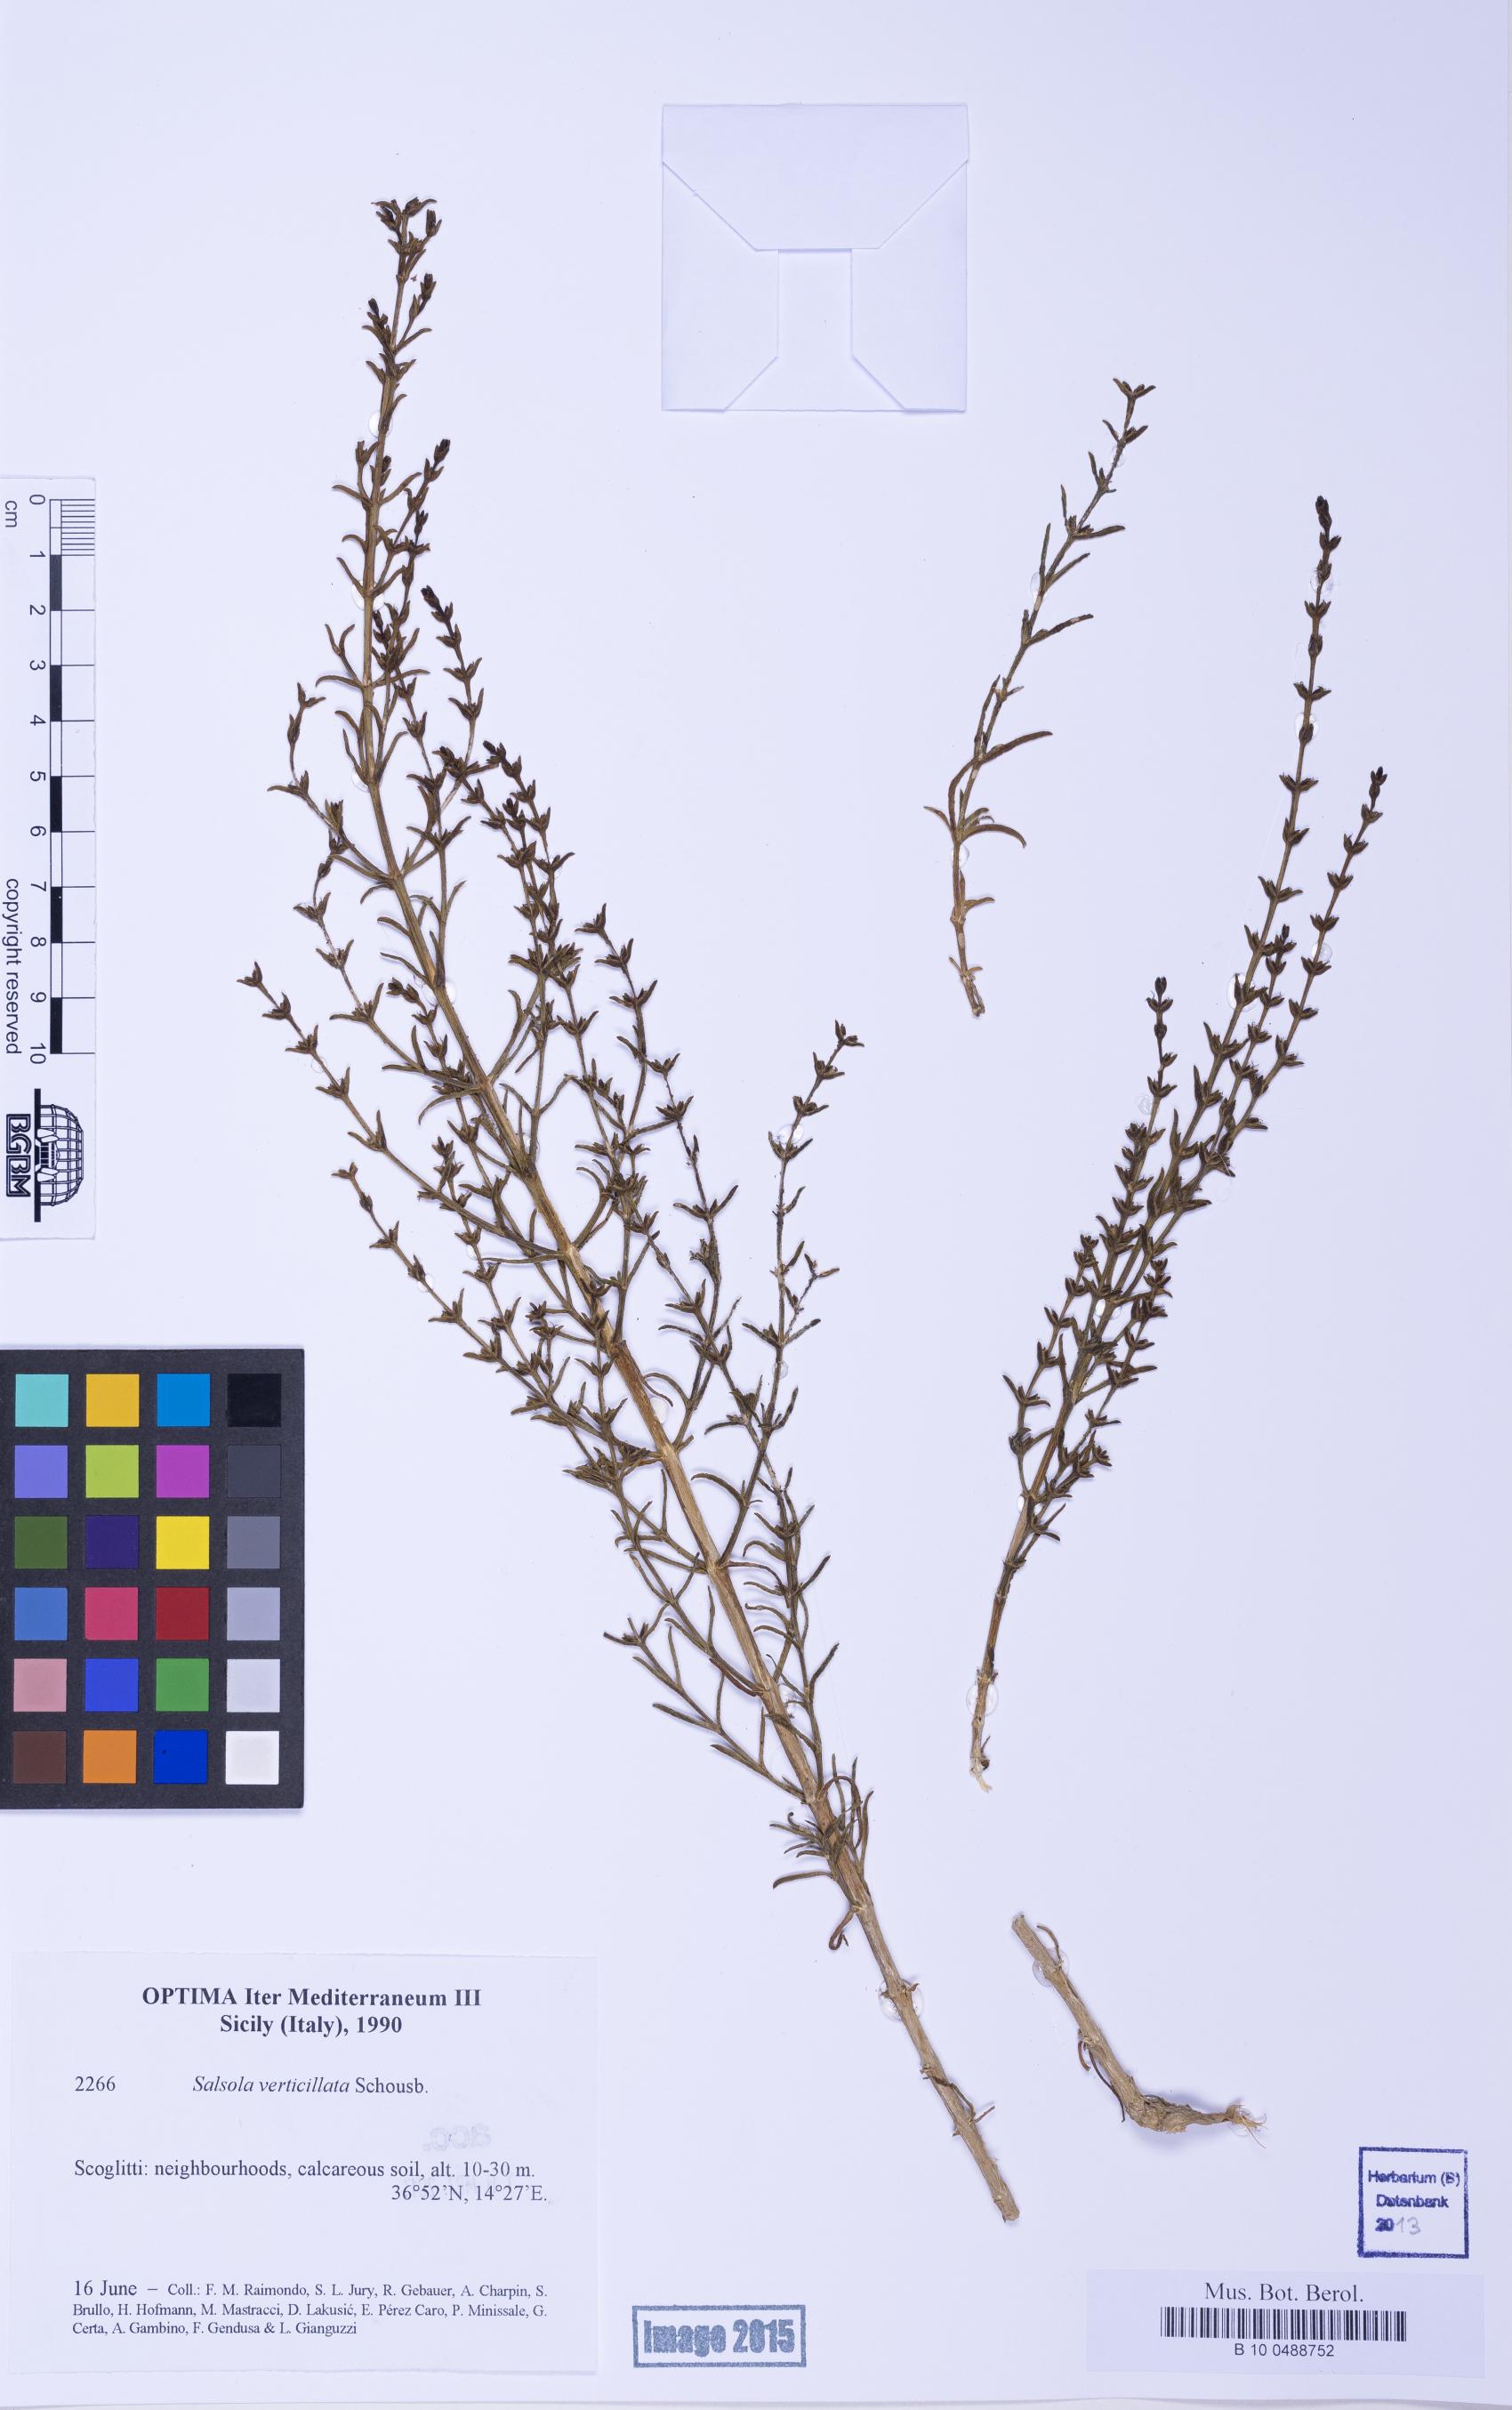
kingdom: Plantae
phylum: Tracheophyta
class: Magnoliopsida
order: Caryophyllales
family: Amaranthaceae
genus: Salsola
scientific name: Salsola verticillata
